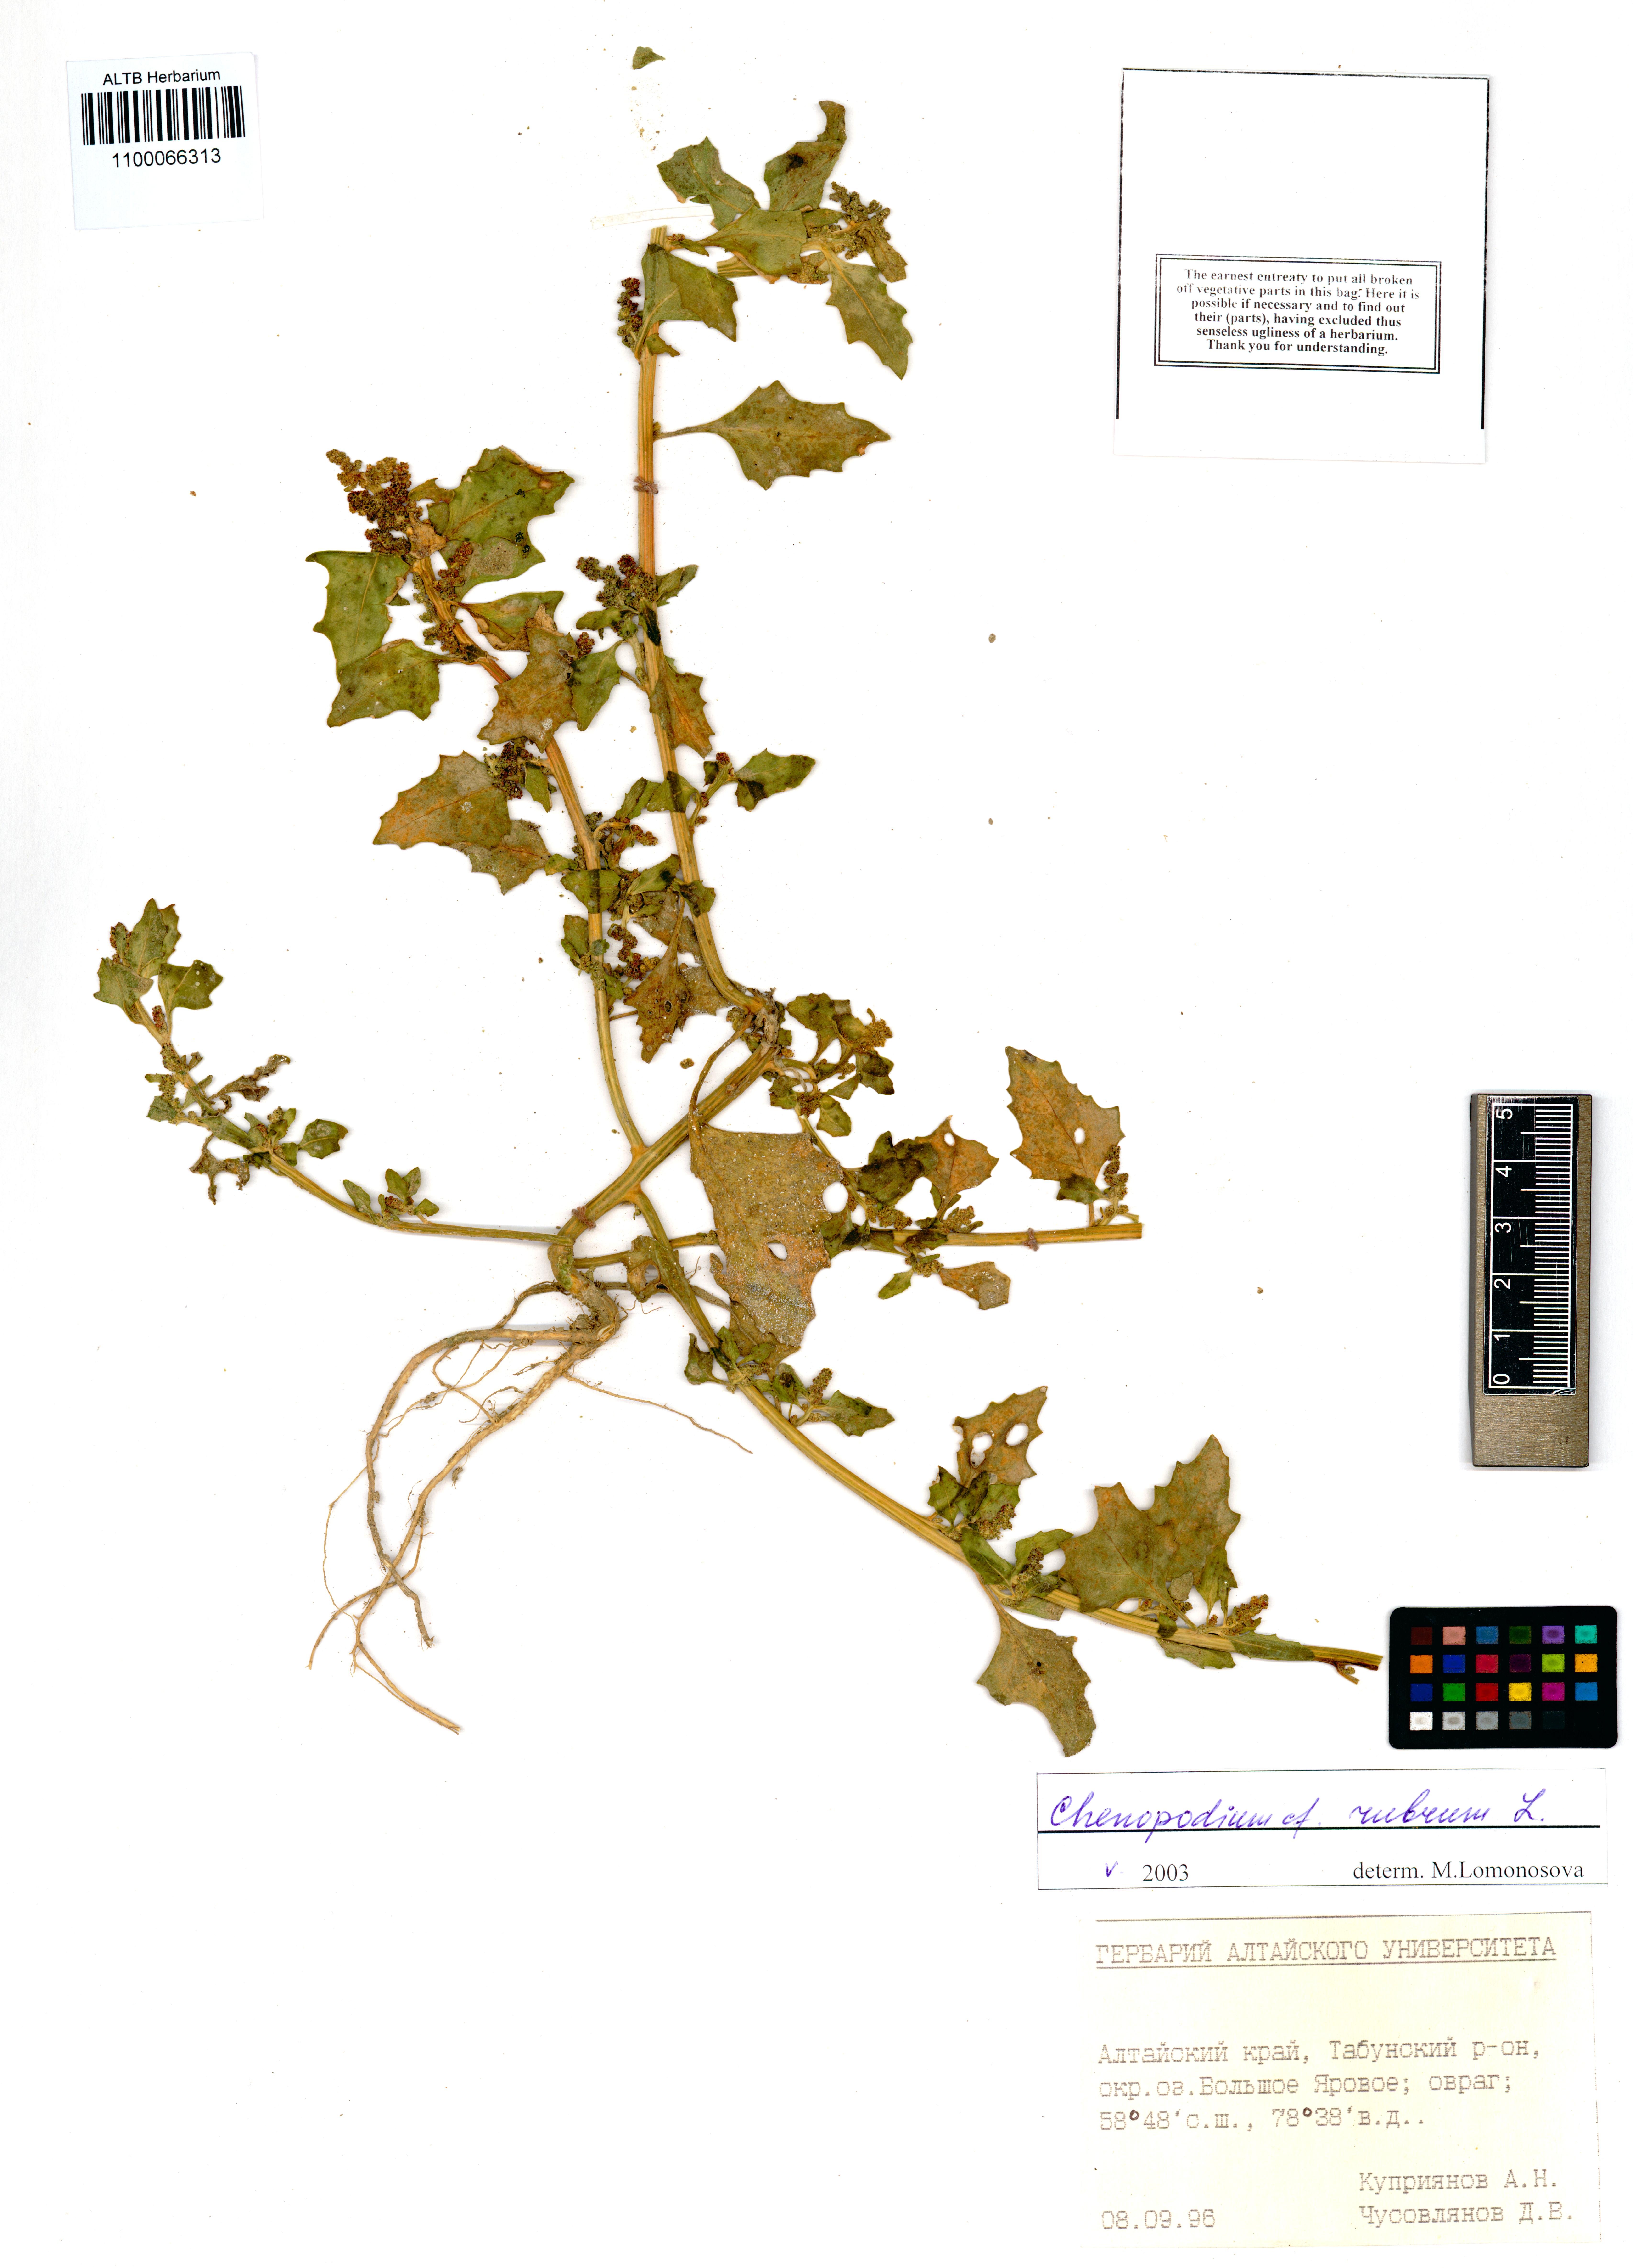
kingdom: Plantae
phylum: Tracheophyta
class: Magnoliopsida
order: Caryophyllales
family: Amaranthaceae
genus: Oxybasis
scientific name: Oxybasis rubra
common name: Red goosefoot
